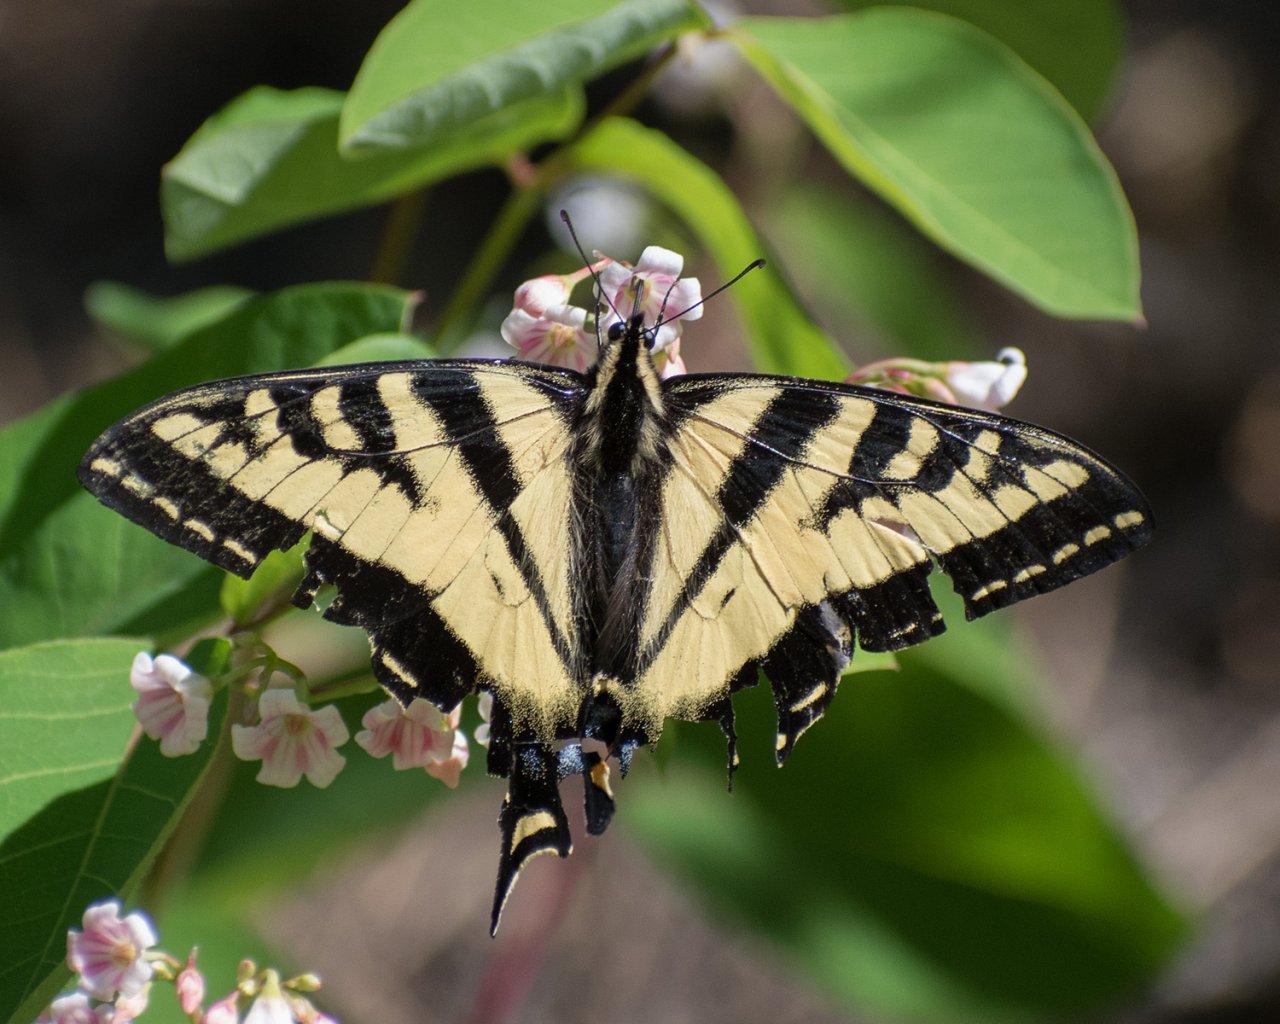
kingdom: Animalia
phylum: Arthropoda
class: Insecta
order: Lepidoptera
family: Papilionidae
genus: Pterourus
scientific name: Pterourus rutulus
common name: Western Tiger Swallowtail
